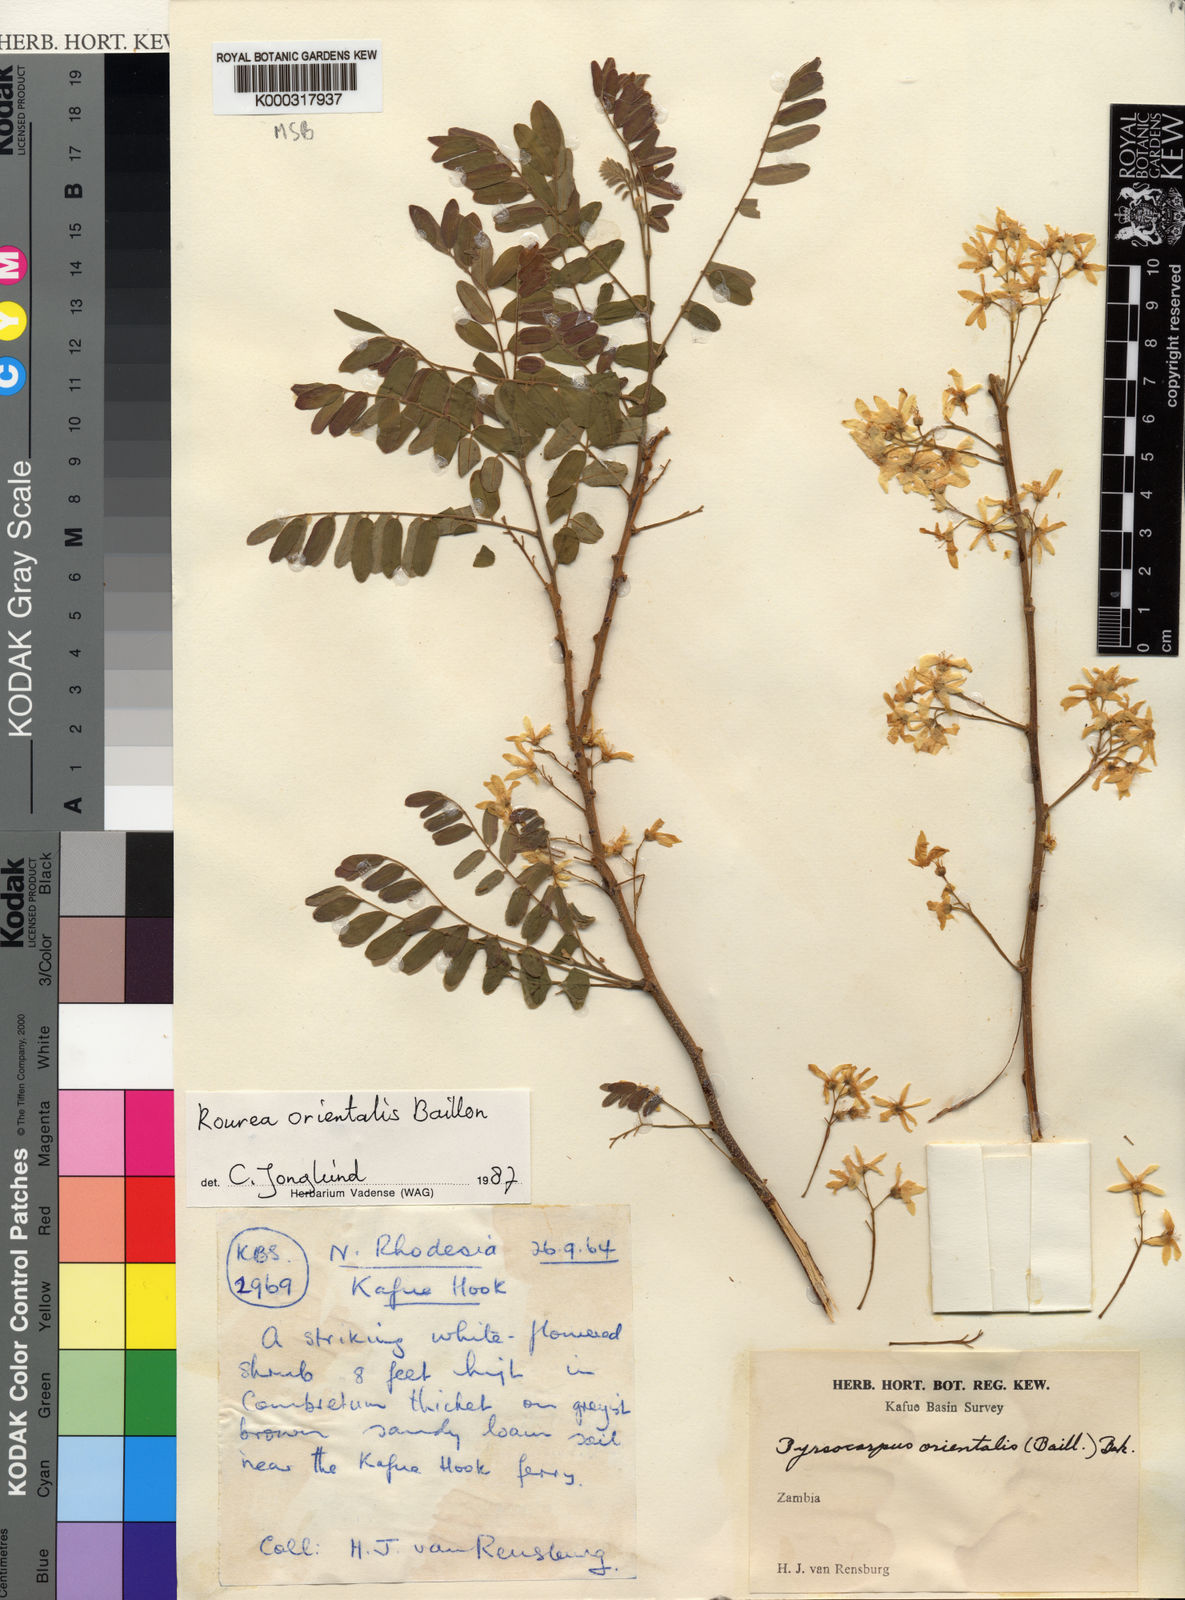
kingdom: Plantae
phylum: Tracheophyta
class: Magnoliopsida
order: Oxalidales
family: Connaraceae
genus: Rourea
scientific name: Rourea orientalis
